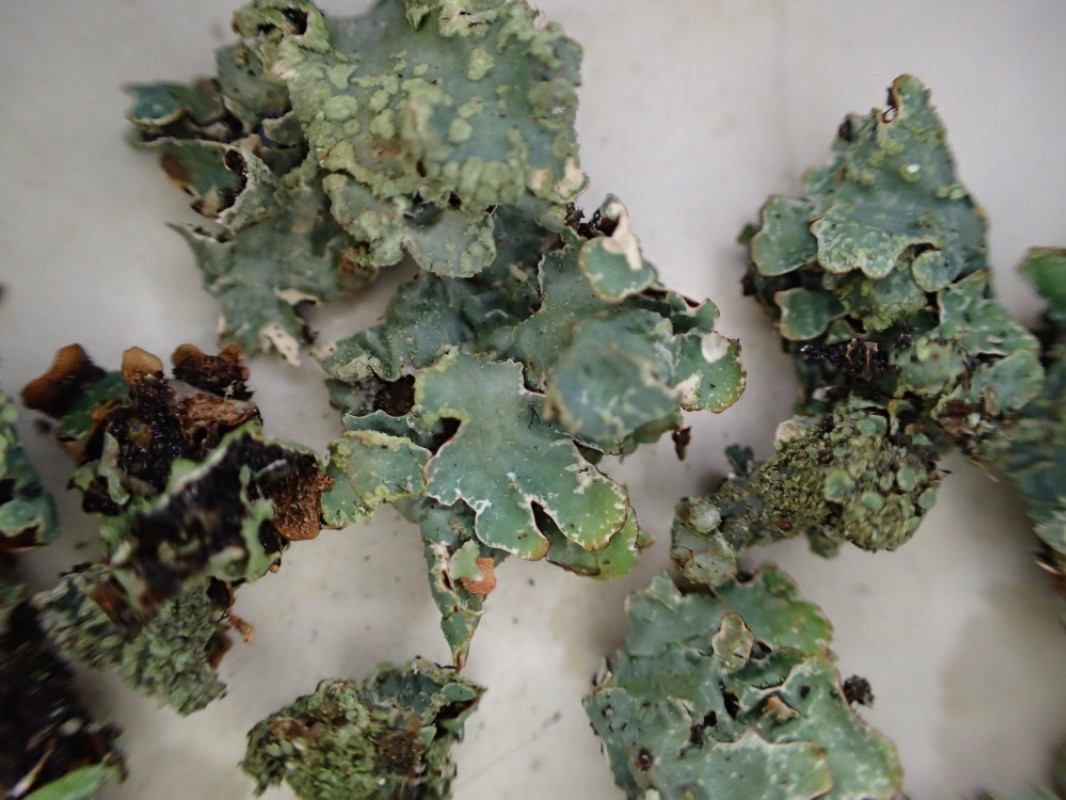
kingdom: Fungi
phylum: Ascomycota
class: Lecanoromycetes
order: Lecanorales
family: Parmeliaceae
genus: Parmelia
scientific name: Parmelia sulcata
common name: rynket skållav
